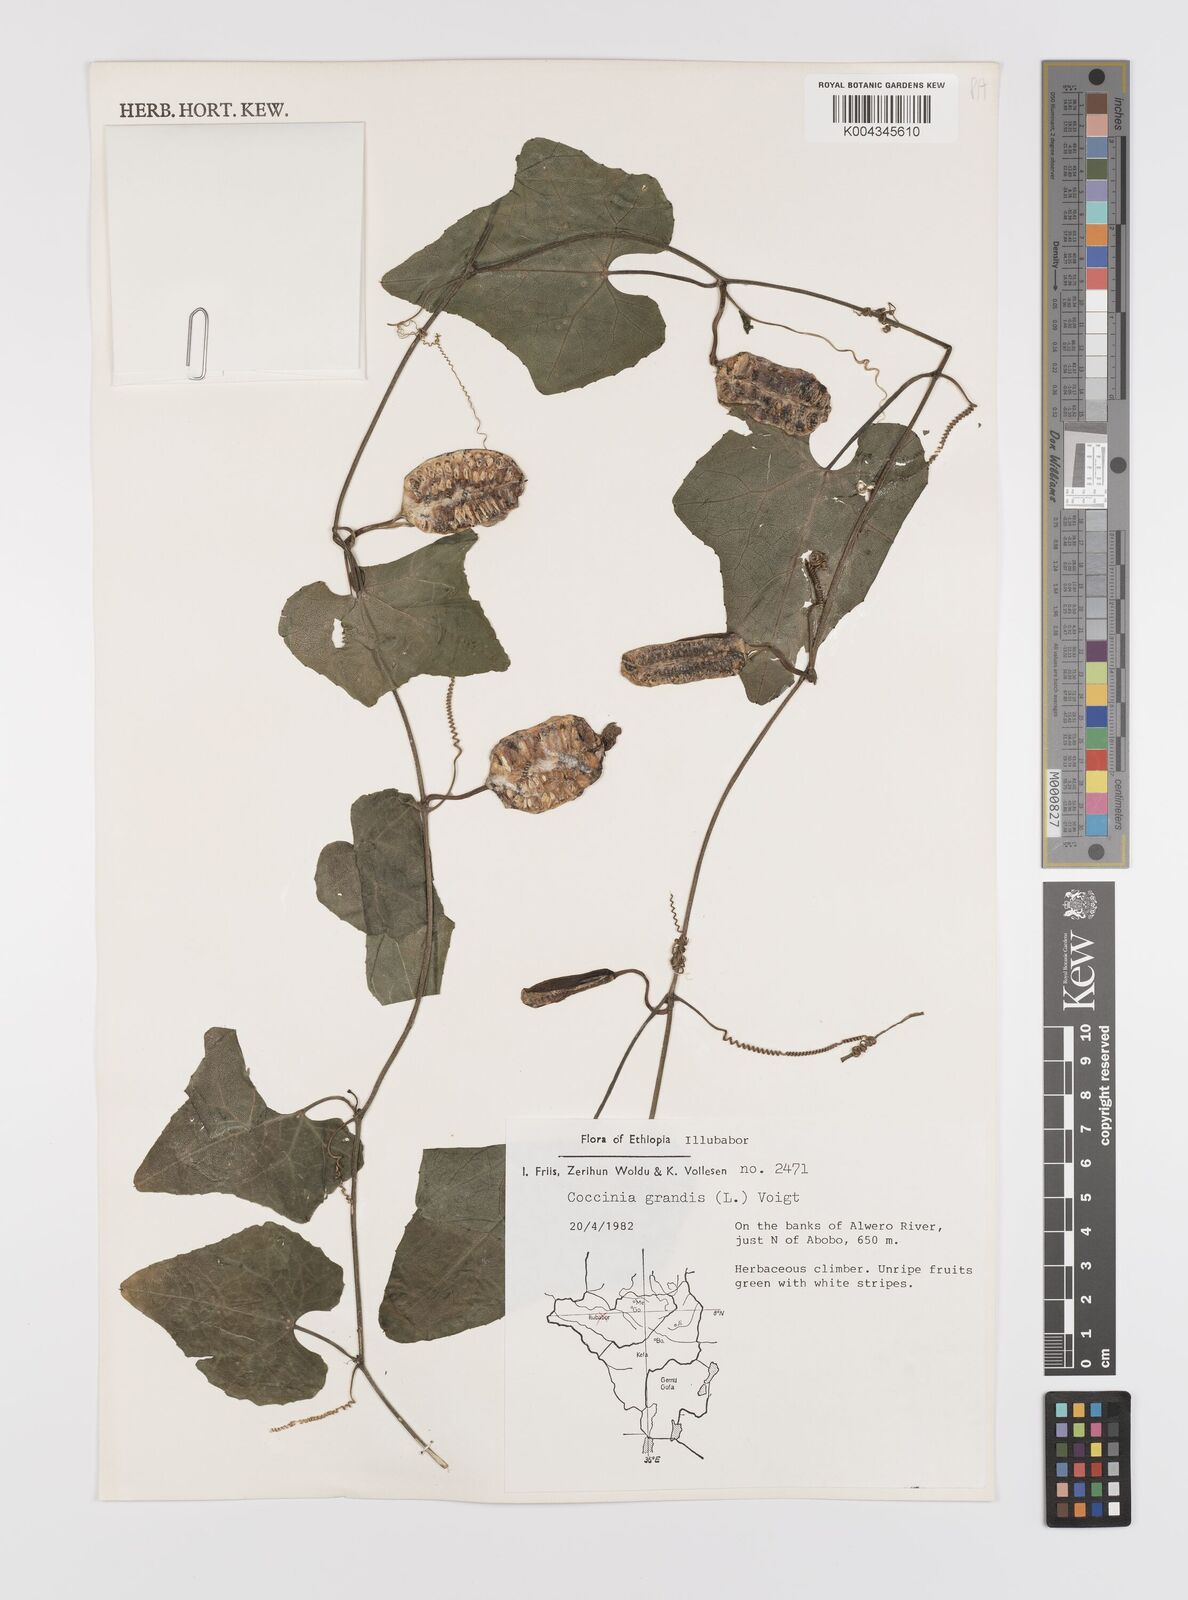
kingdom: Plantae
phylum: Tracheophyta
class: Magnoliopsida
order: Cucurbitales
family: Cucurbitaceae
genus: Coccinia
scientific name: Coccinia grandis
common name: Ivy gourd
